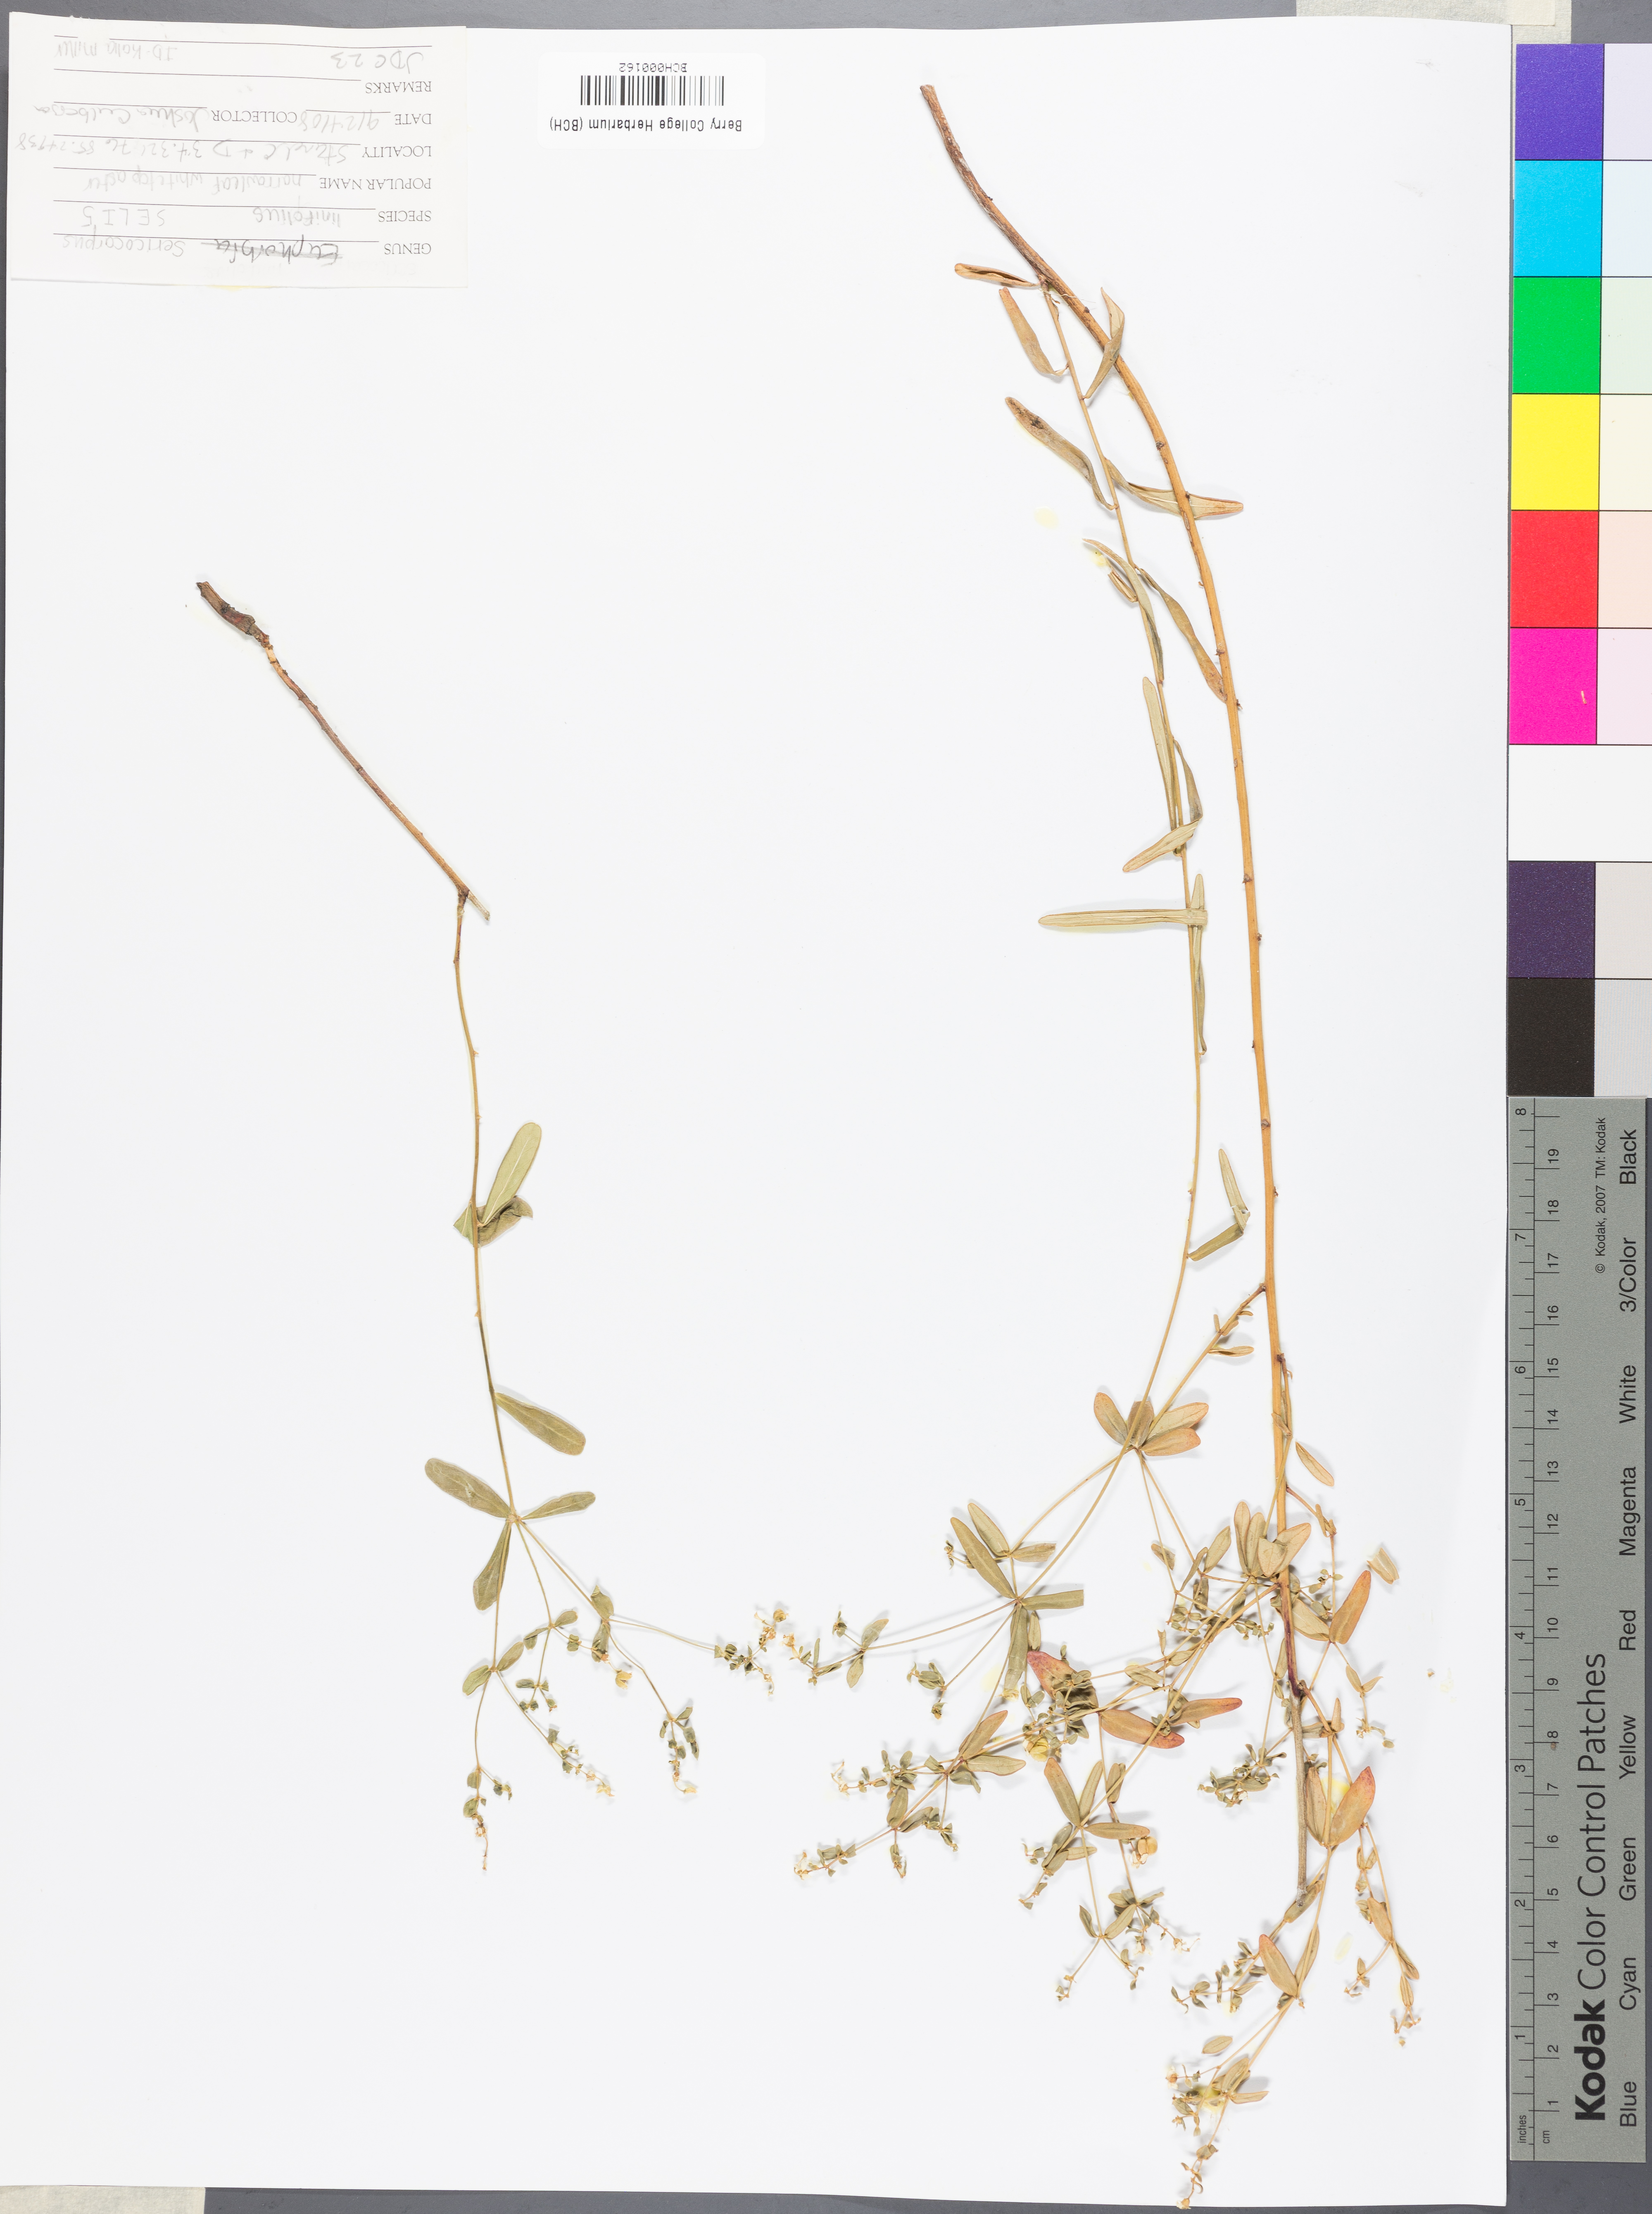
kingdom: Plantae
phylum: Tracheophyta
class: Magnoliopsida
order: Asterales
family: Asteraceae
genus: Sericocarpus
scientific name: Sericocarpus linifolius
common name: Narrow-leaf aster
